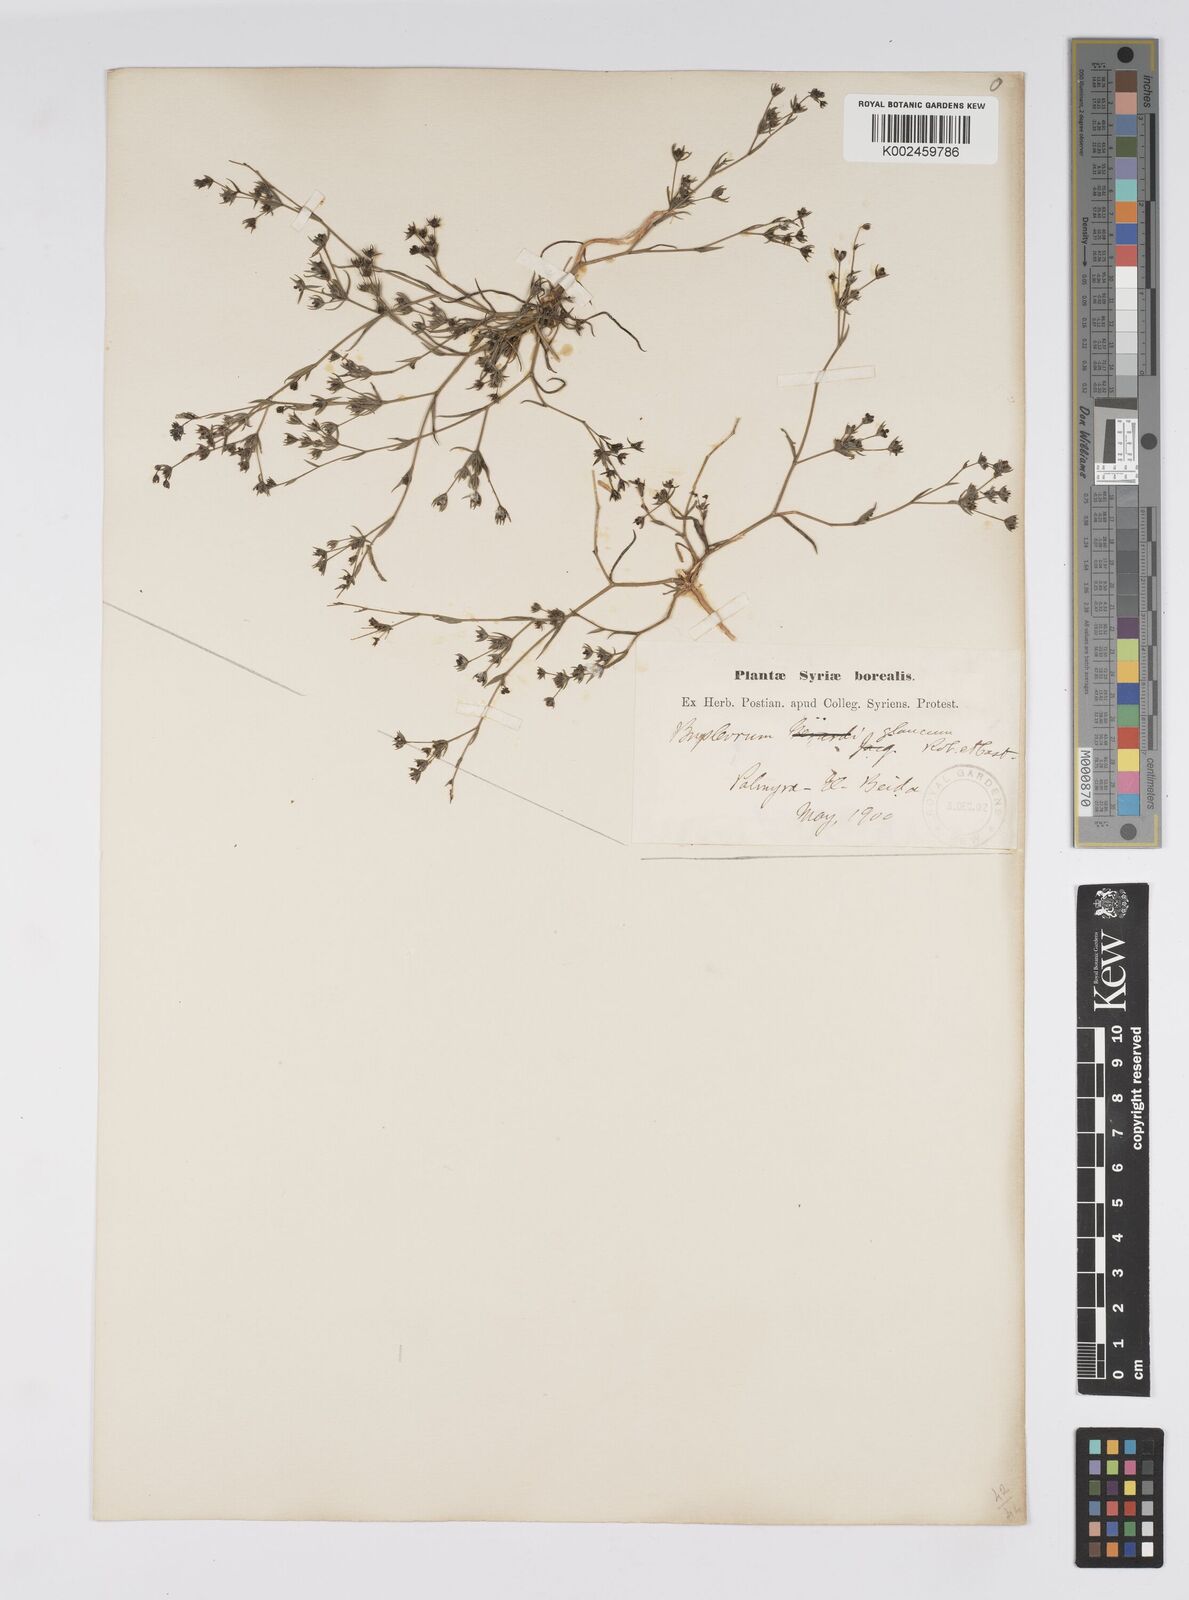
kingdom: Plantae
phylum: Tracheophyta
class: Magnoliopsida
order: Apiales
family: Apiaceae
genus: Bupleurum
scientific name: Bupleurum semicompositum
